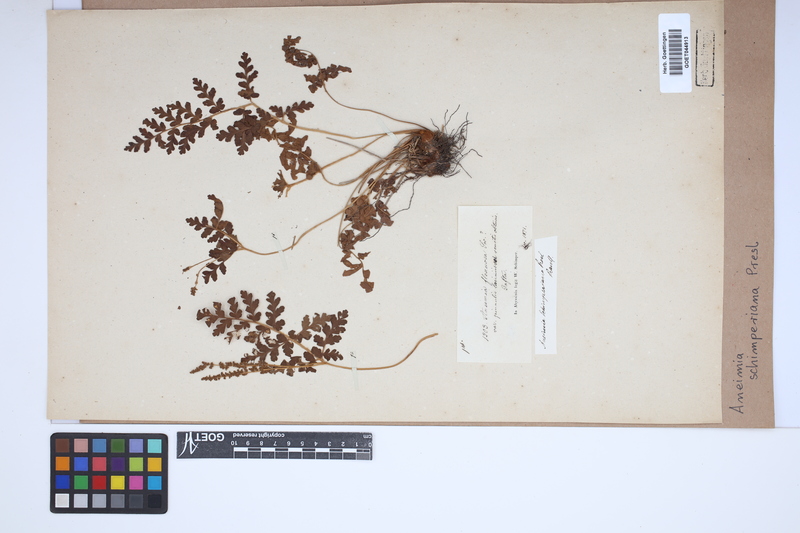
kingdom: Plantae
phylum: Tracheophyta
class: Polypodiopsida
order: Schizaeales
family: Anemiaceae
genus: Anemia
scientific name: Anemia schimperiana
